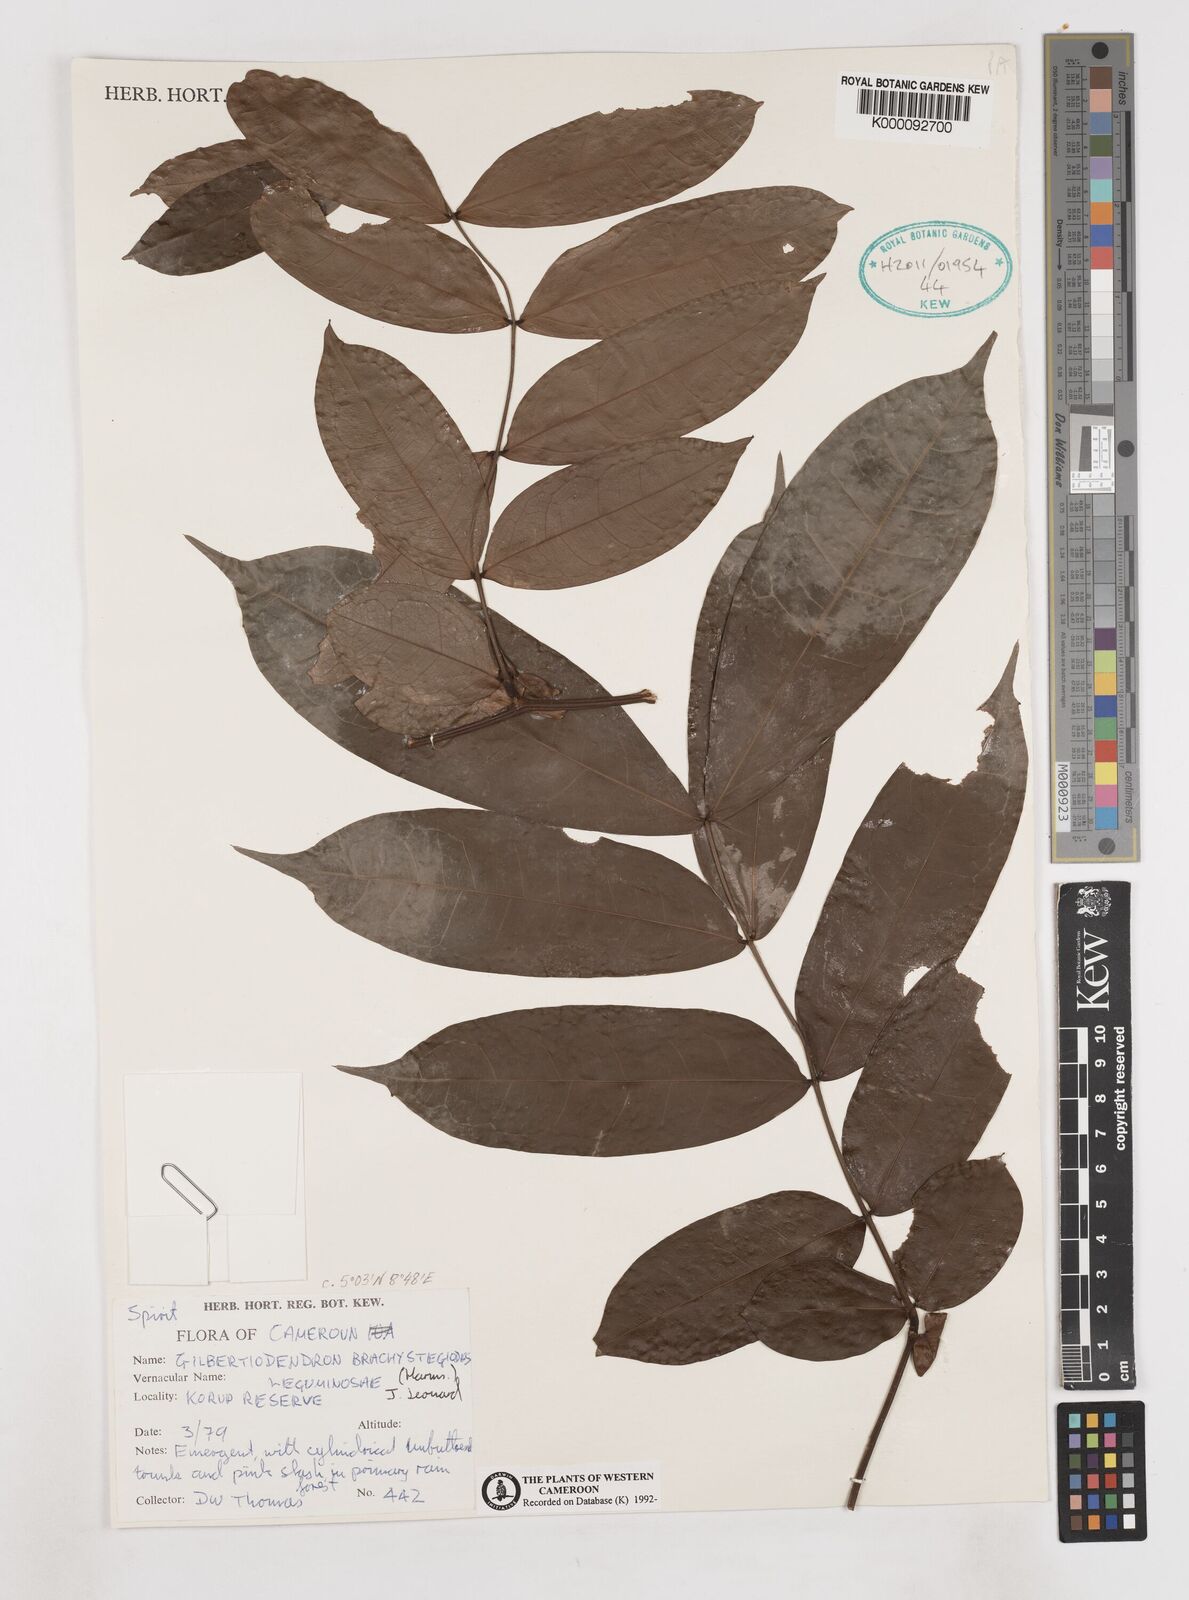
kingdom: Plantae
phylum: Tracheophyta
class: Magnoliopsida
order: Fabales
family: Fabaceae
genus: Gilbertiodendron
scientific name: Gilbertiodendron
